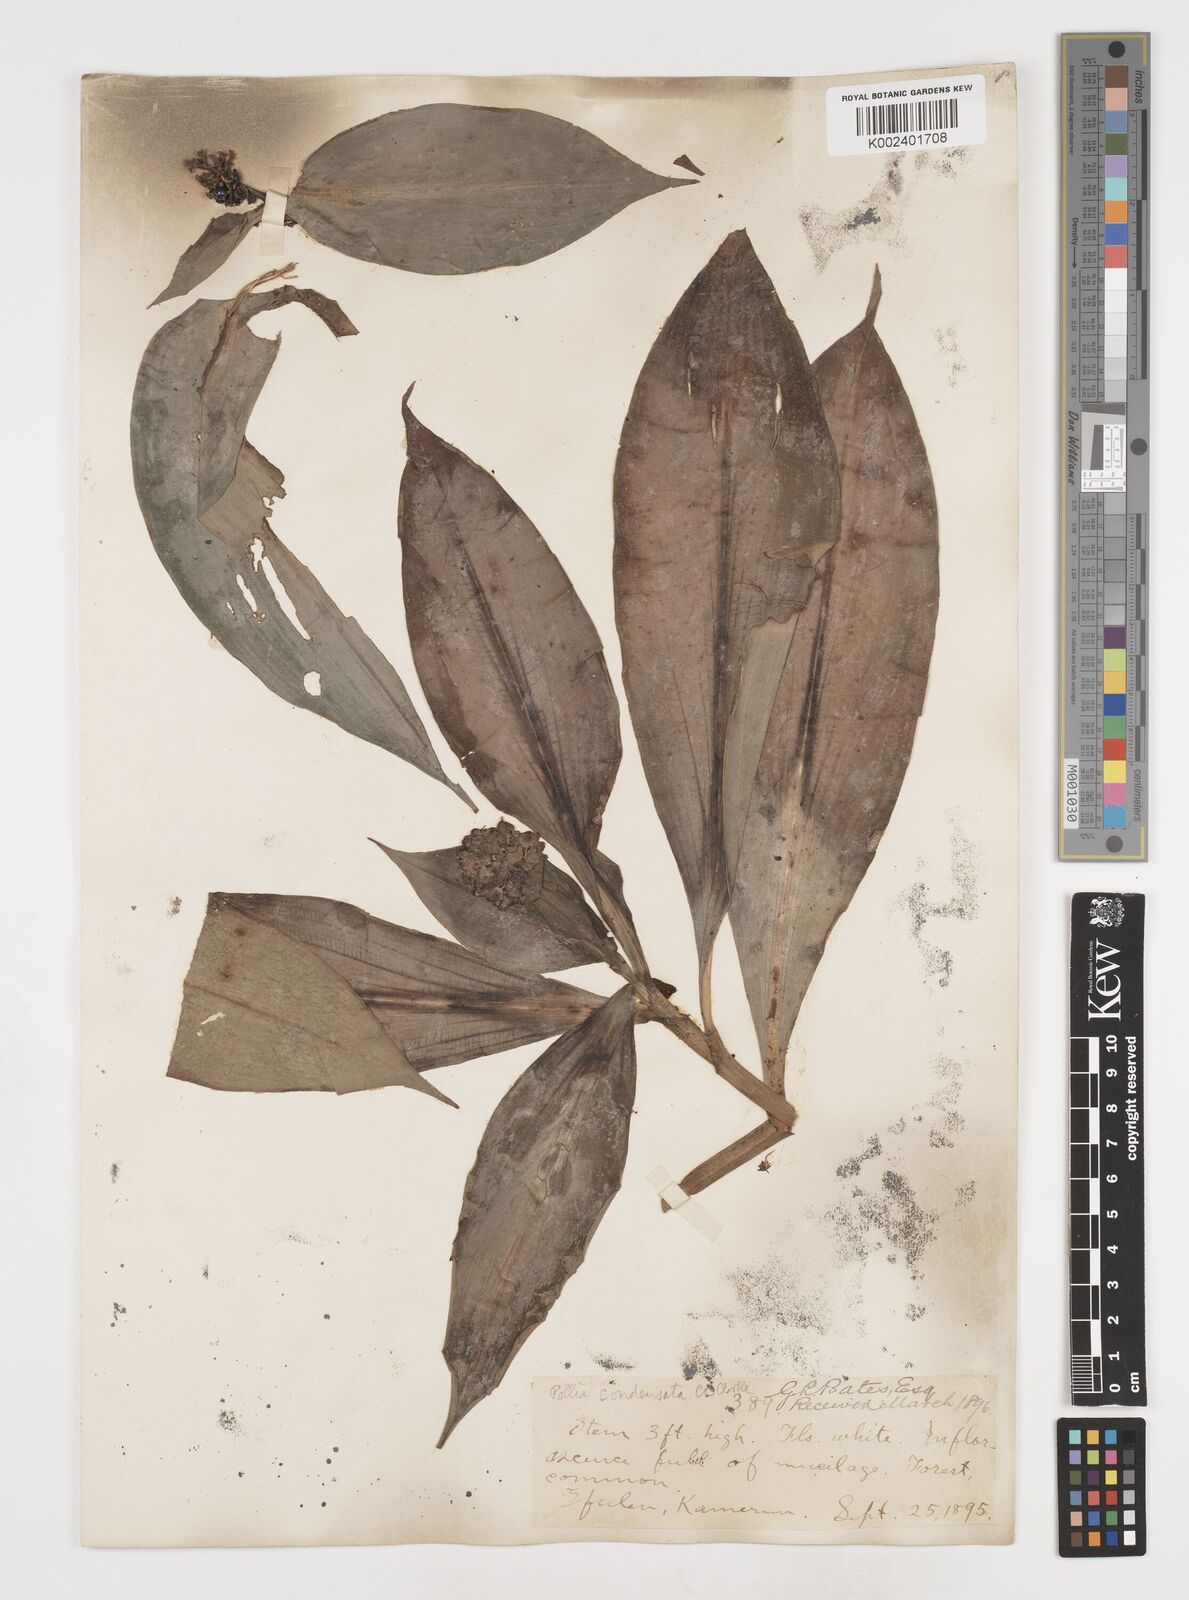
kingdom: Plantae
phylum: Tracheophyta
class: Liliopsida
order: Commelinales
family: Commelinaceae
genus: Pollia
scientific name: Pollia condensata
